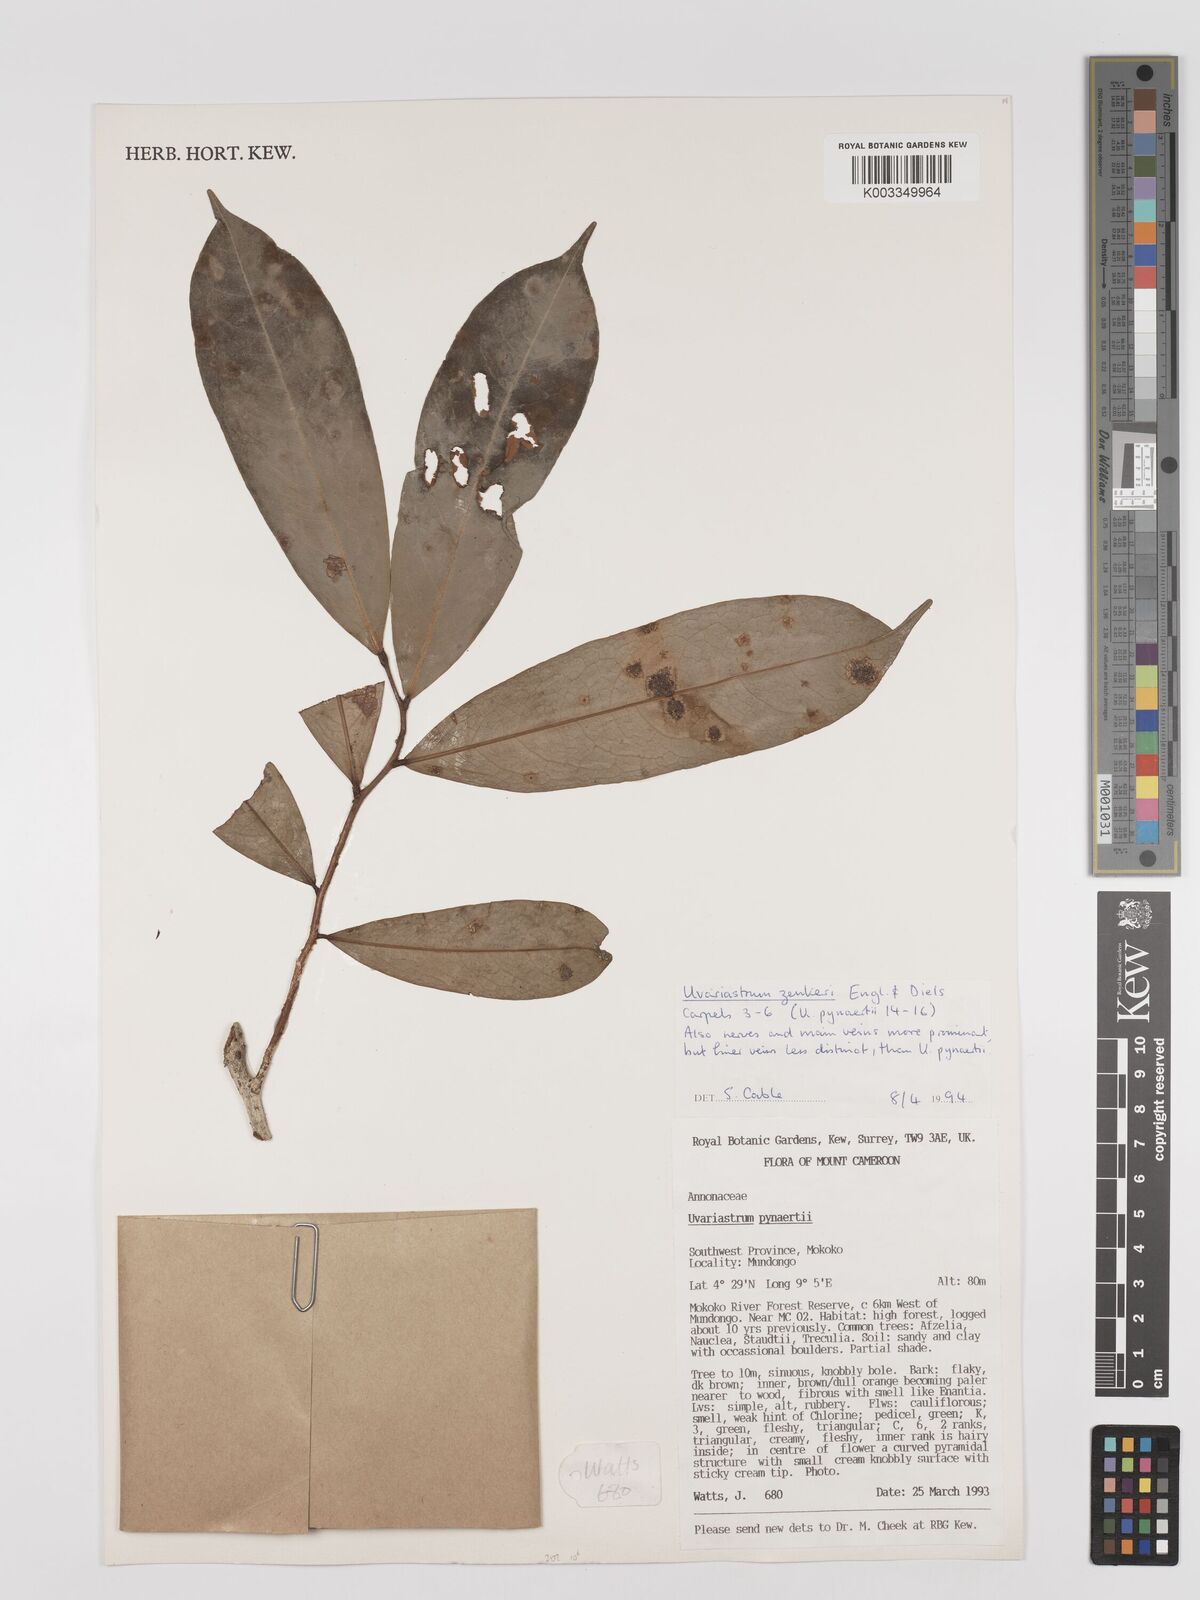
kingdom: Plantae
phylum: Tracheophyta
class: Magnoliopsida
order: Magnoliales
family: Annonaceae
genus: Uvariastrum
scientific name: Uvariastrum zenkeri
